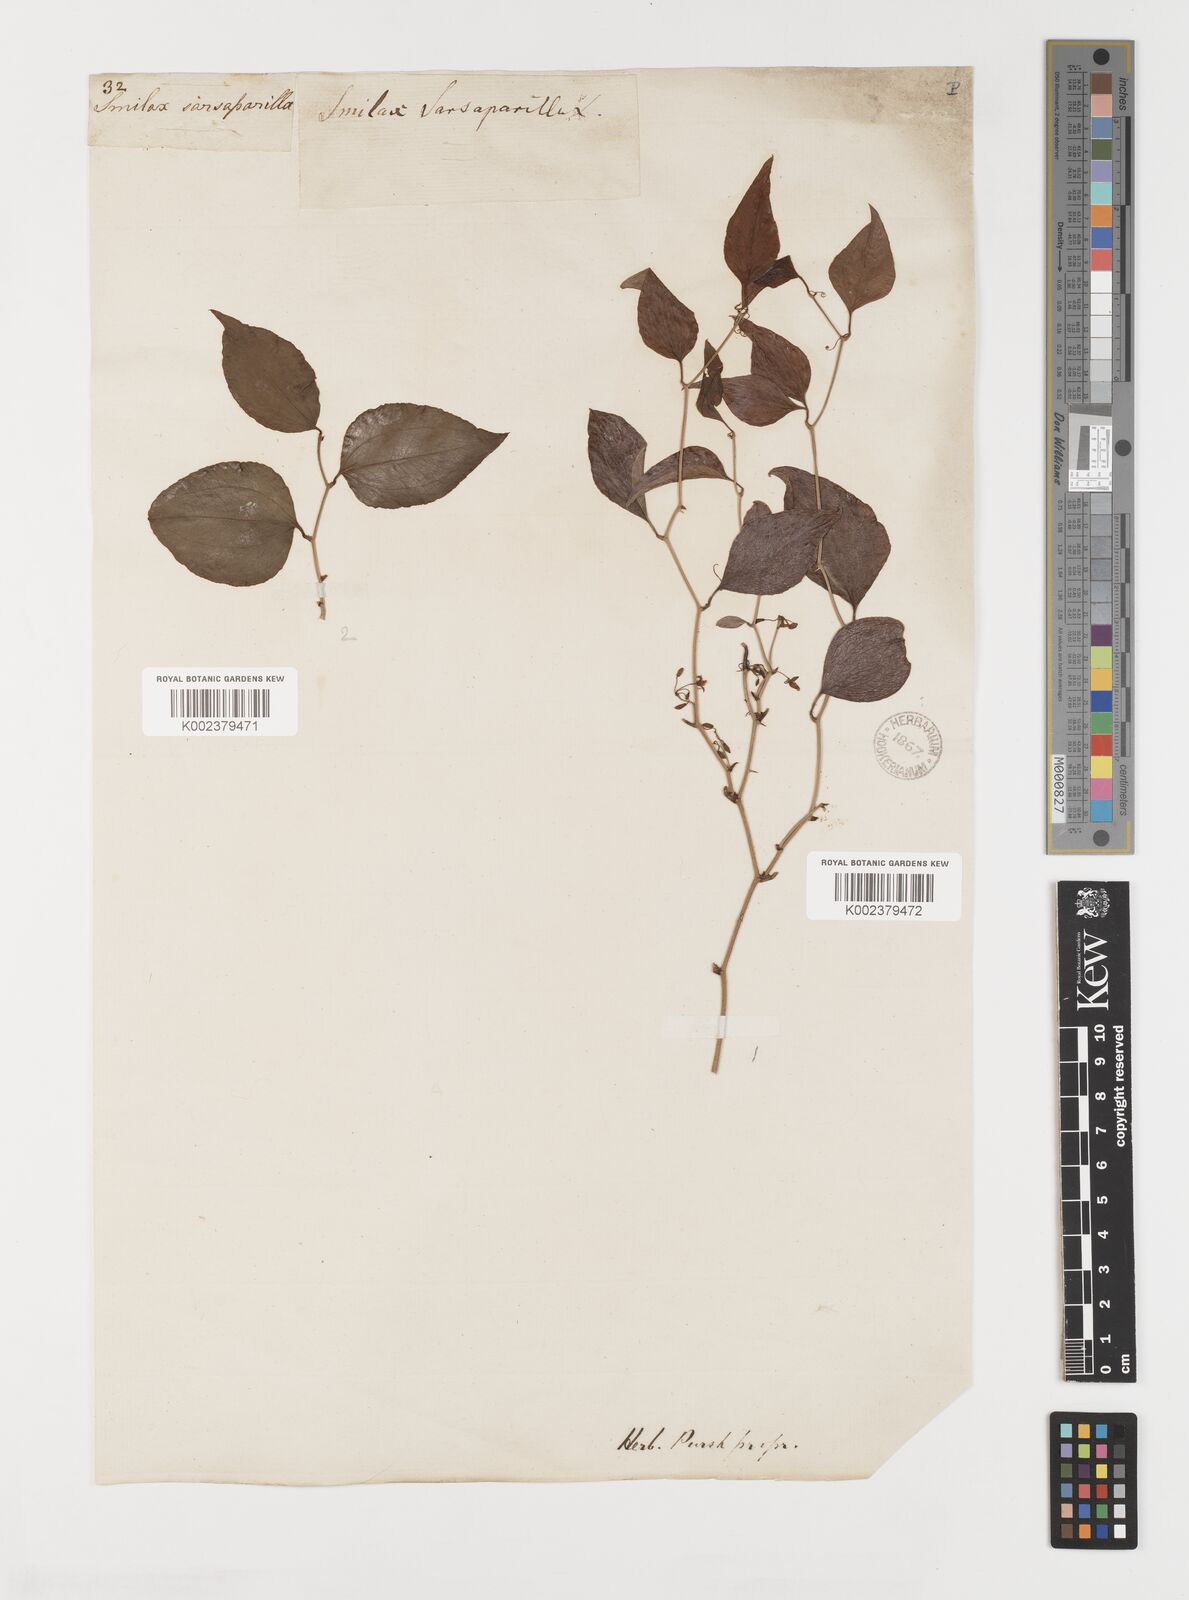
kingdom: Plantae
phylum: Tracheophyta
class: Liliopsida
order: Liliales
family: Smilacaceae
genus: Smilax
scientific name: Smilax
